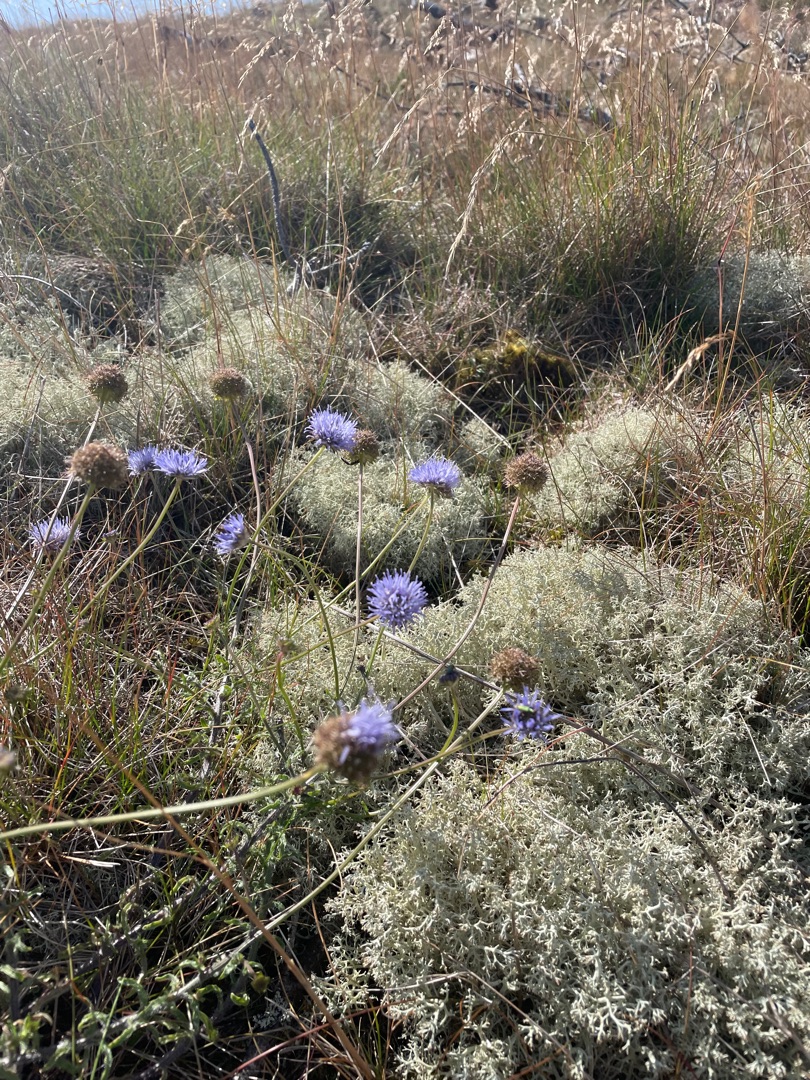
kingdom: Plantae
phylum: Tracheophyta
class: Magnoliopsida
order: Asterales
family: Campanulaceae
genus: Jasione
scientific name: Jasione montana
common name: Blåmunke
